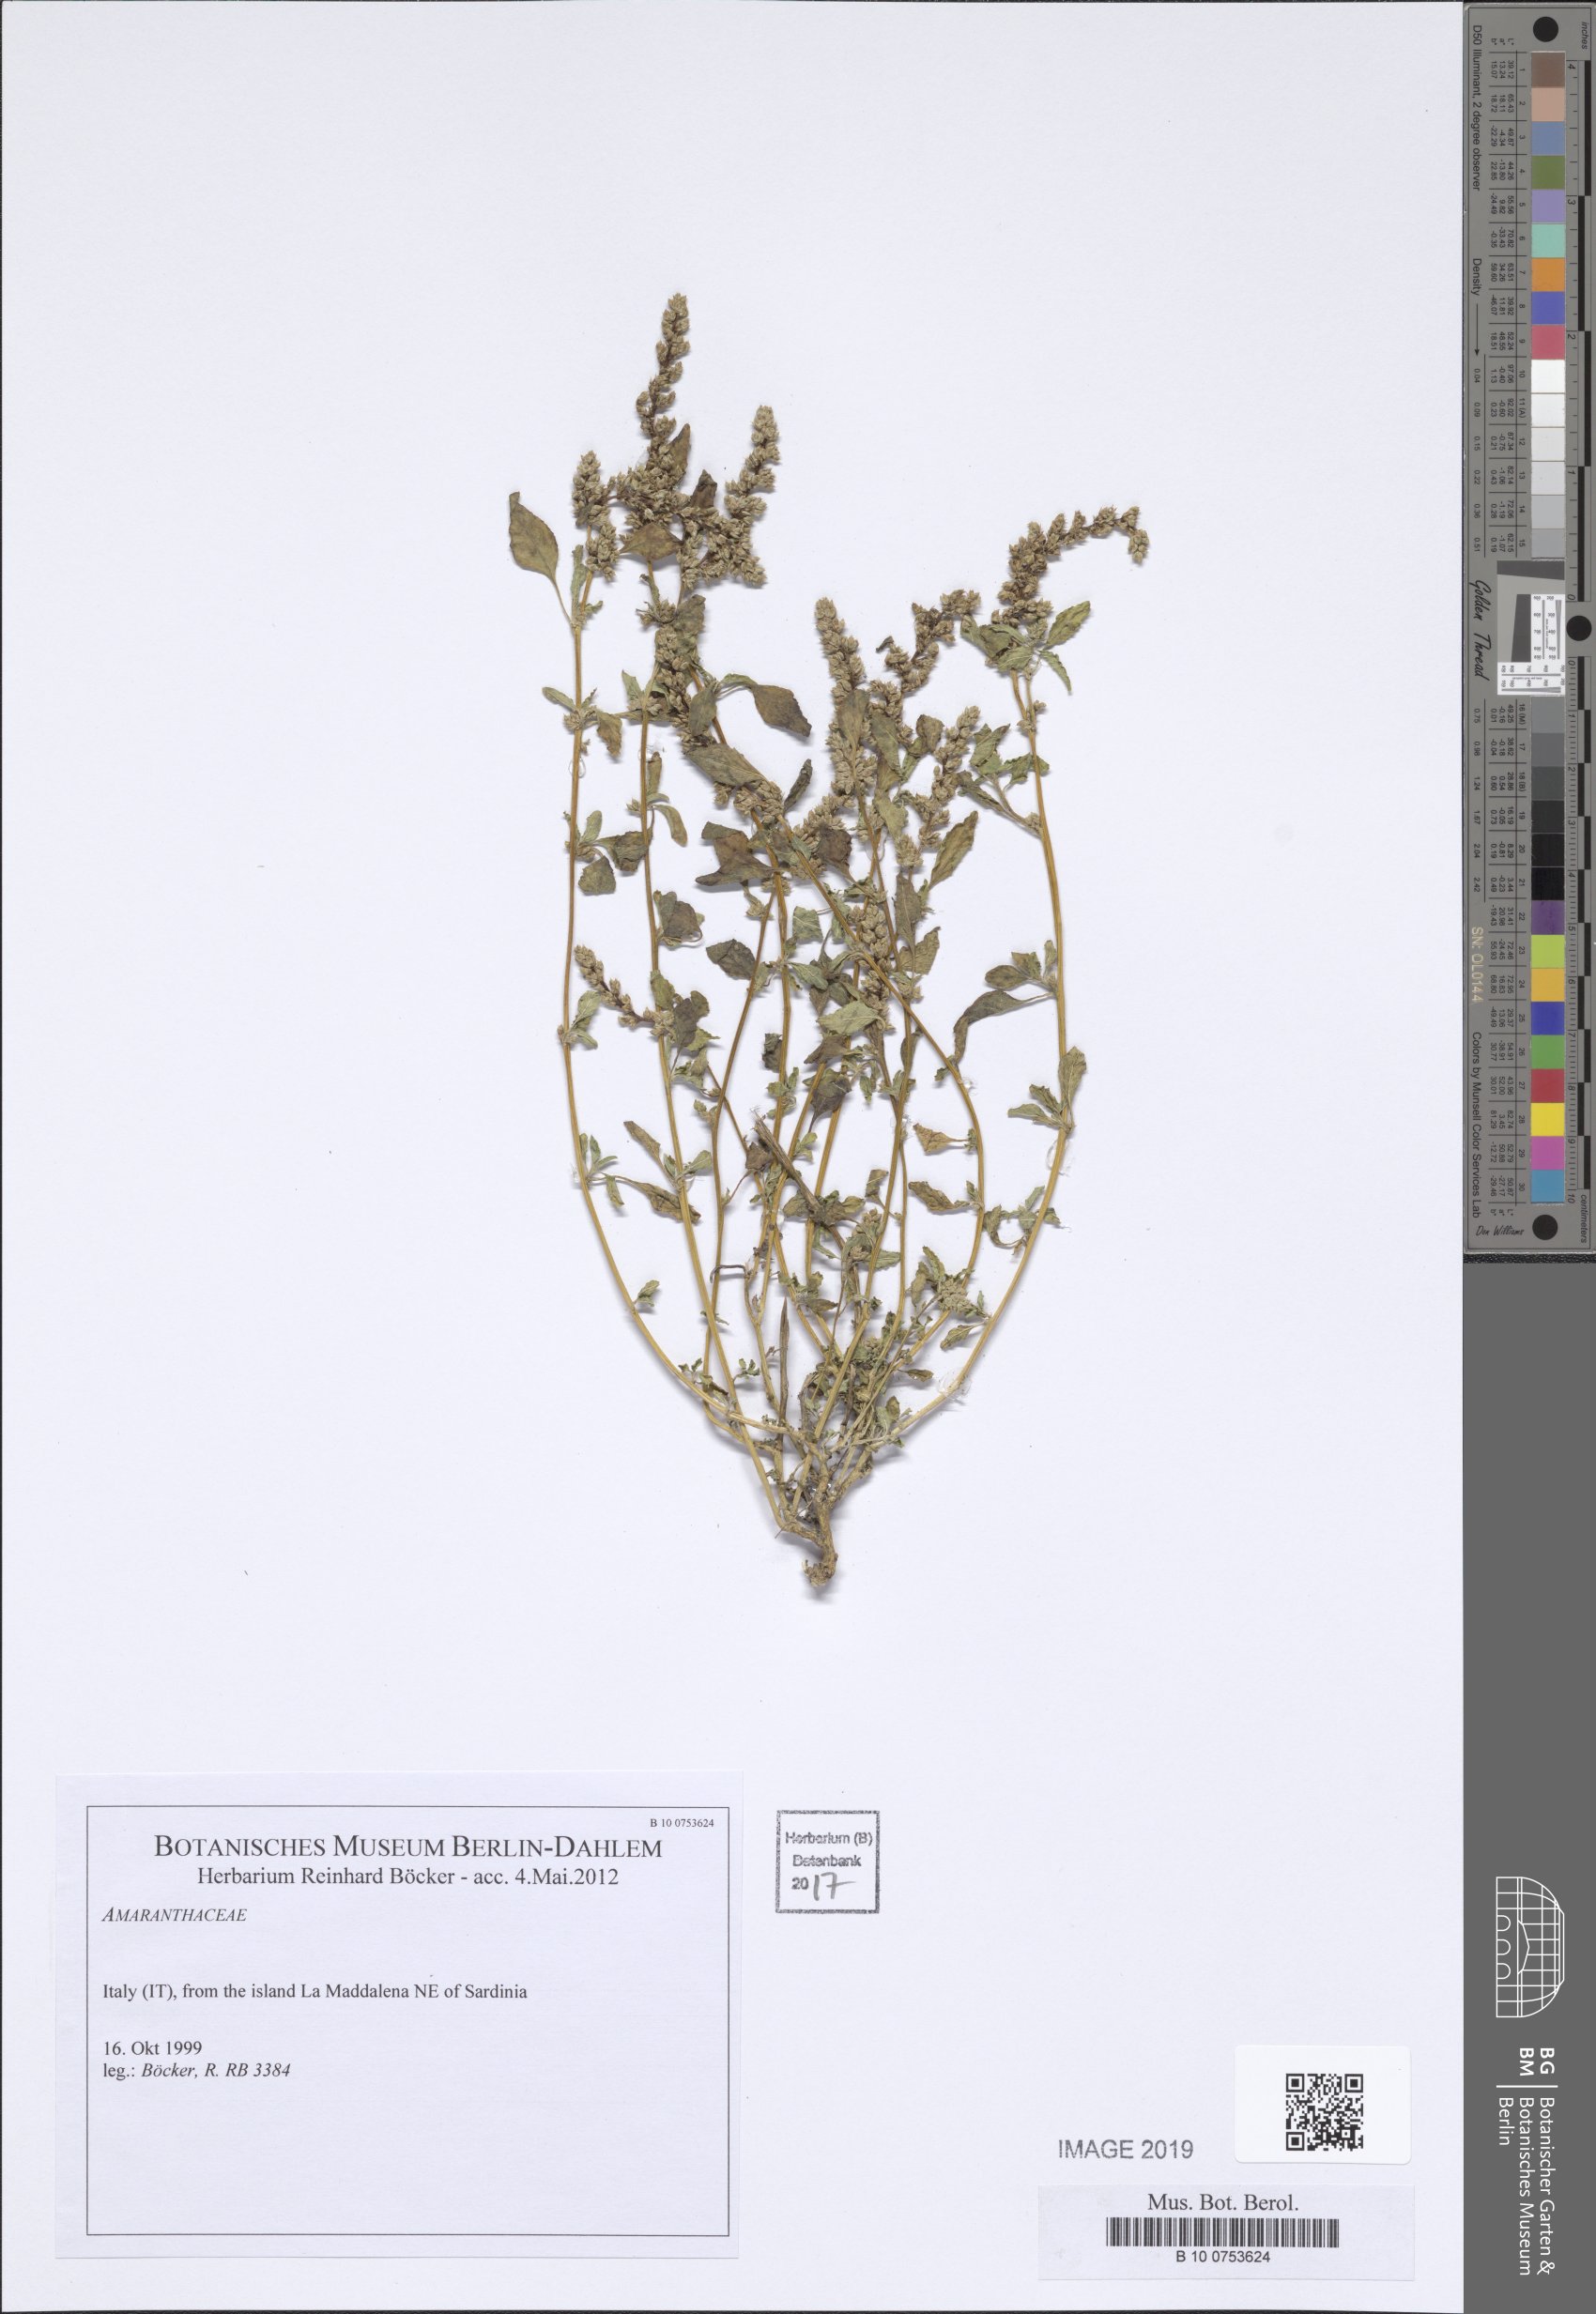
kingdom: Plantae
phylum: Tracheophyta
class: Magnoliopsida
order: Caryophyllales
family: Amaranthaceae
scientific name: Amaranthaceae
